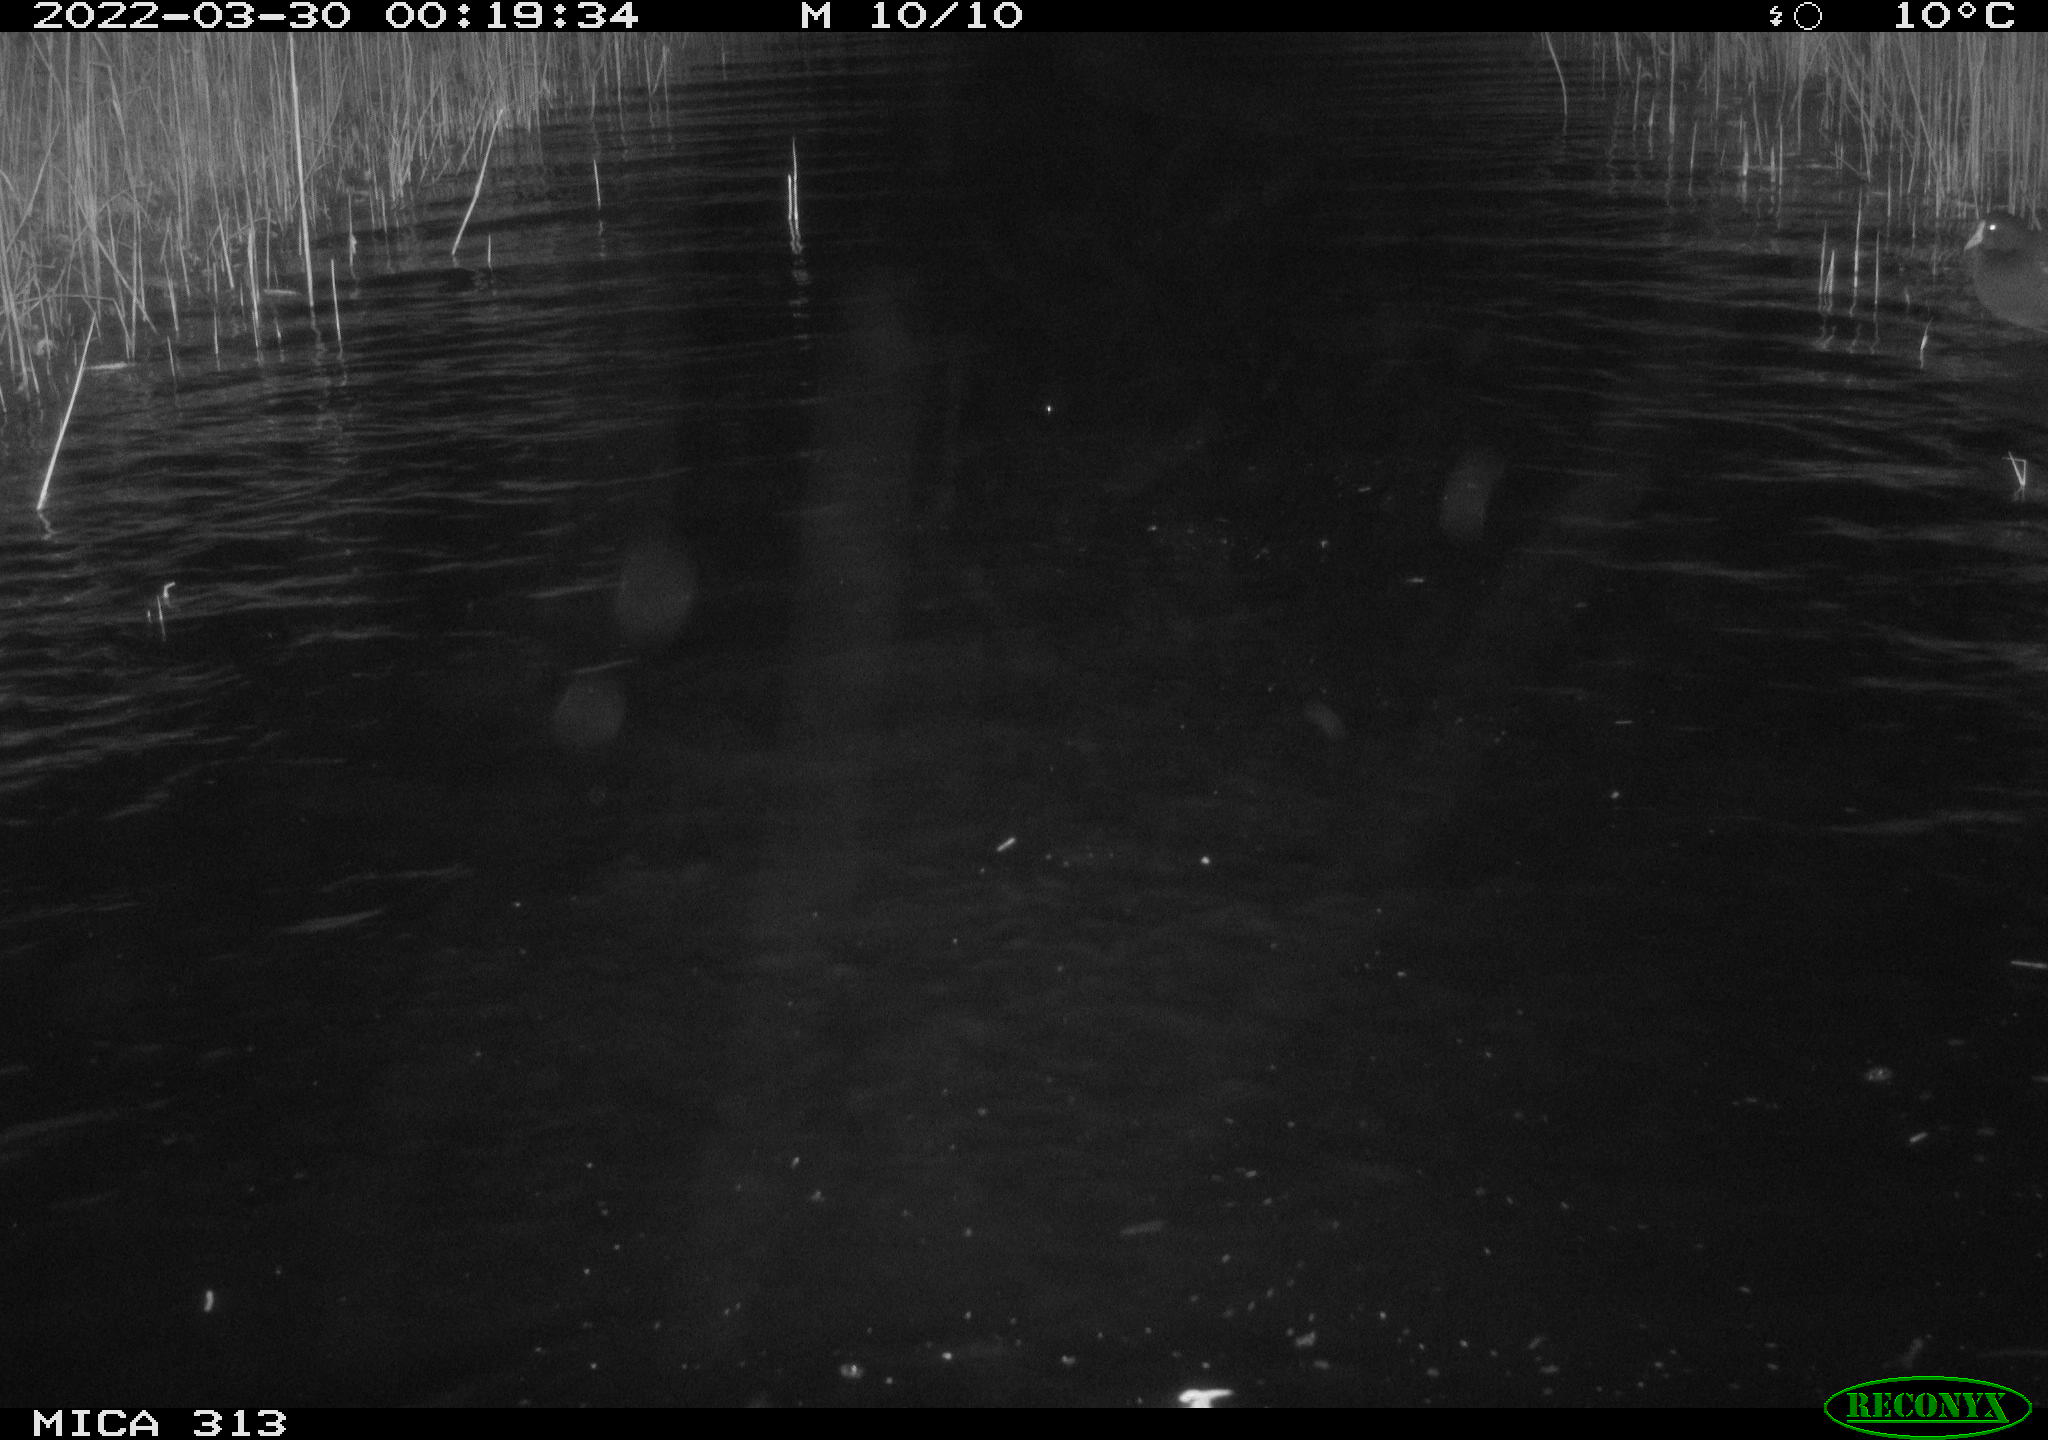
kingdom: Animalia
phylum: Chordata
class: Aves
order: Anseriformes
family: Anatidae
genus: Mareca
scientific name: Mareca strepera
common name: Gadwall
